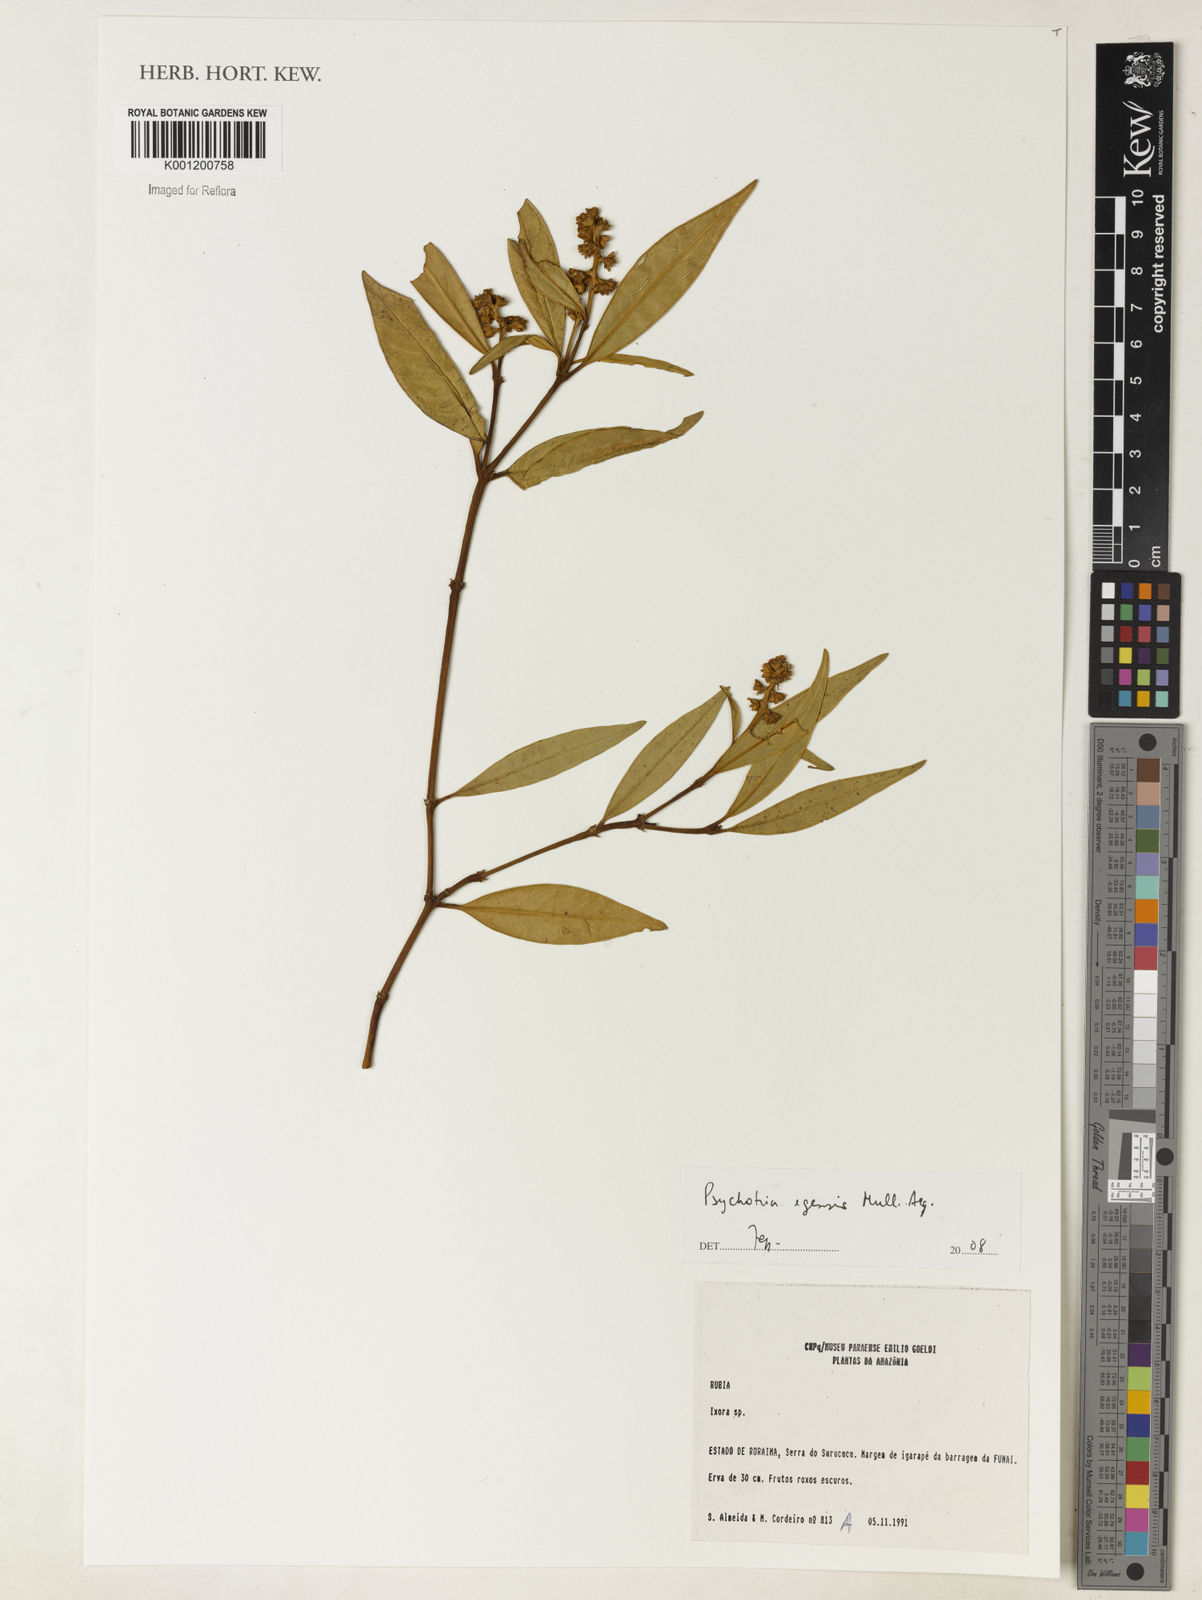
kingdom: Plantae
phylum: Tracheophyta
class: Magnoliopsida
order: Gentianales
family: Rubiaceae
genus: Psychotria
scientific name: Psychotria
